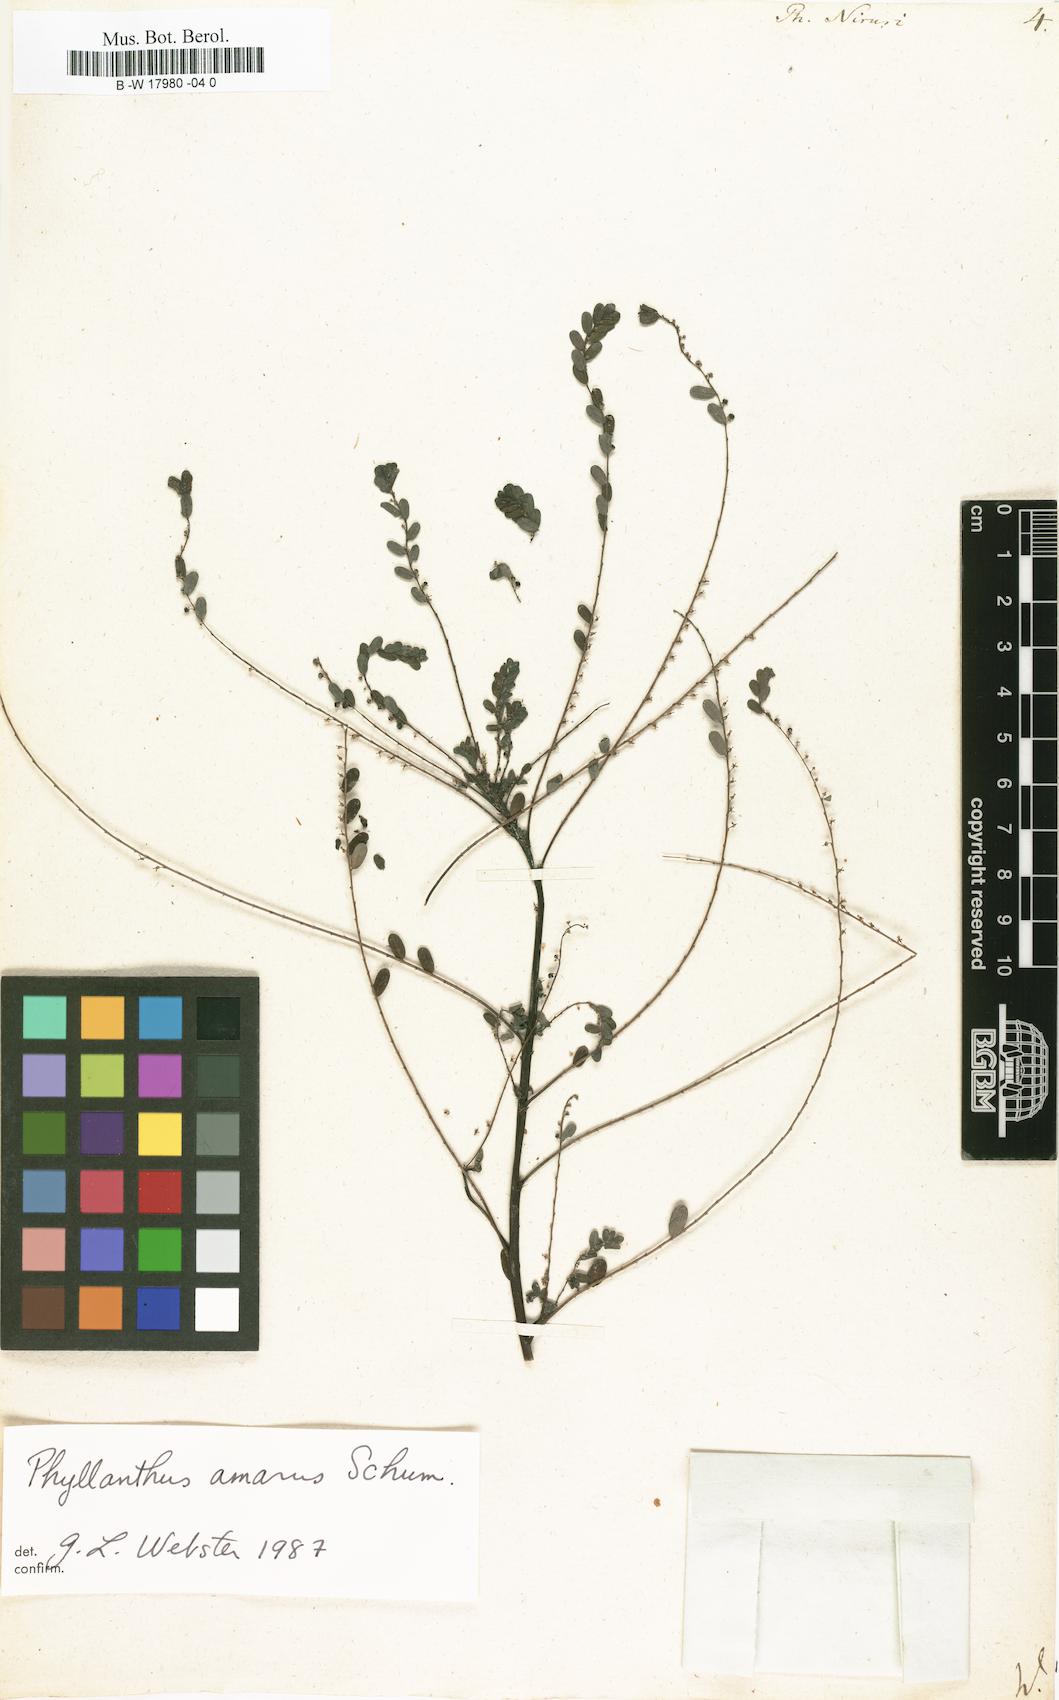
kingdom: Plantae
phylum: Tracheophyta
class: Magnoliopsida
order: Malpighiales
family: Phyllanthaceae
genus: Phyllanthus
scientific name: Phyllanthus niruri
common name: Niruri
